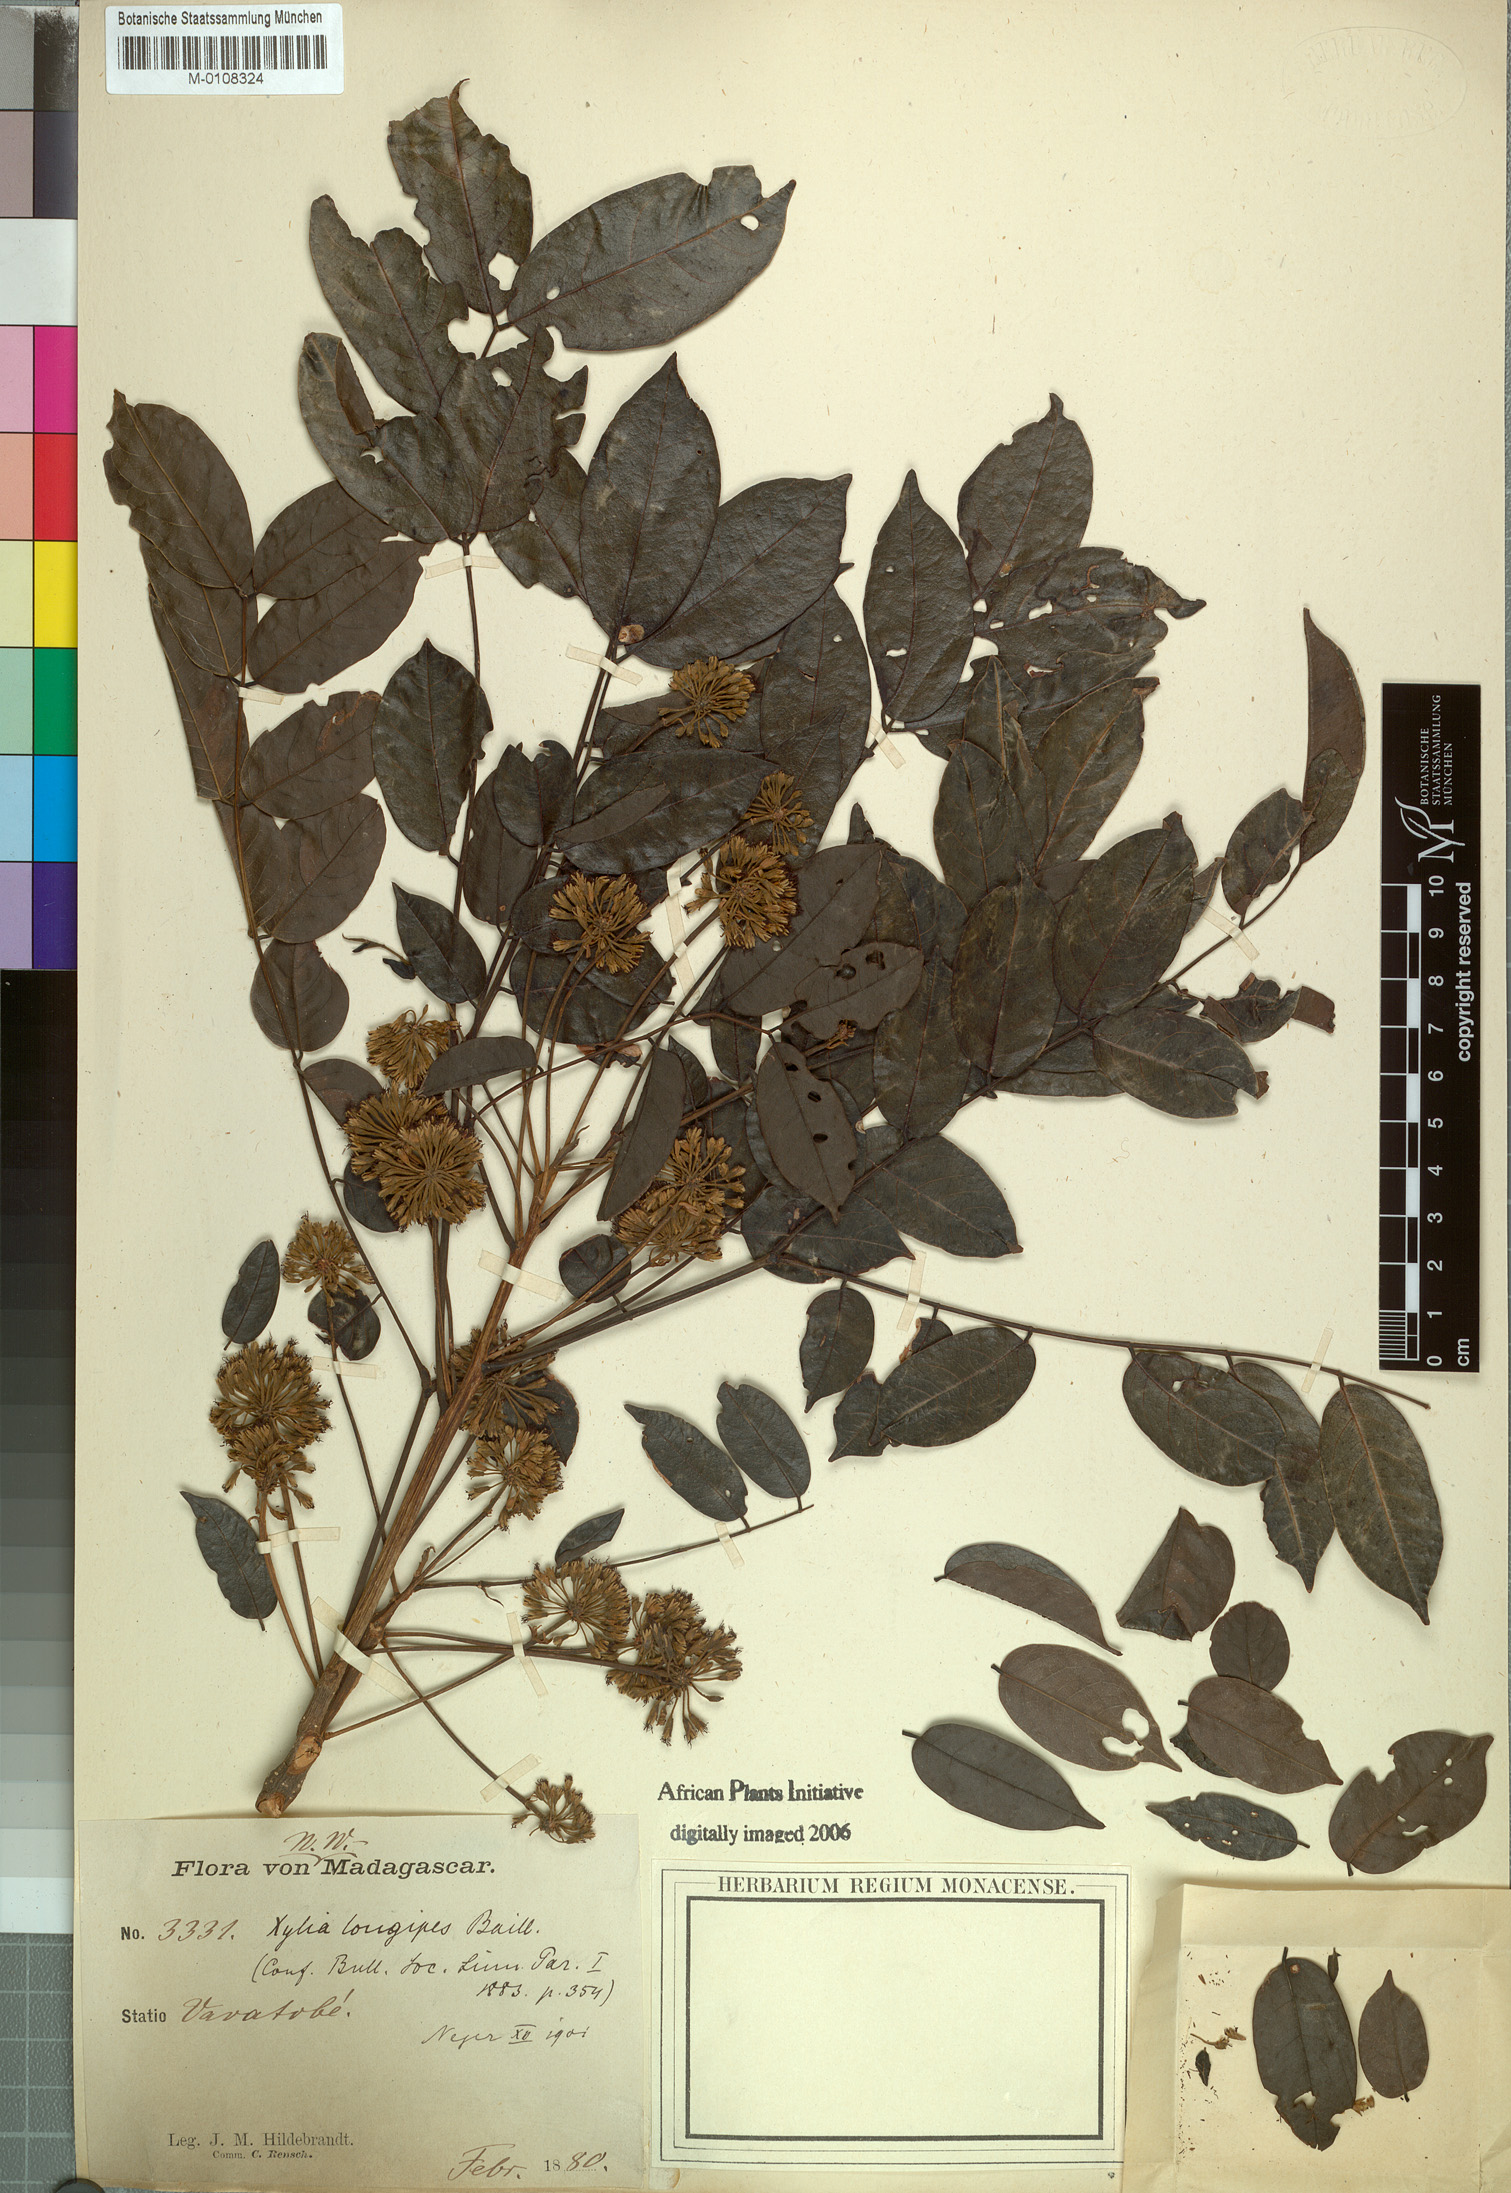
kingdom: Plantae
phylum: Tracheophyta
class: Magnoliopsida
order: Fabales
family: Fabaceae
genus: Xylia
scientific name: Xylia fraterna
